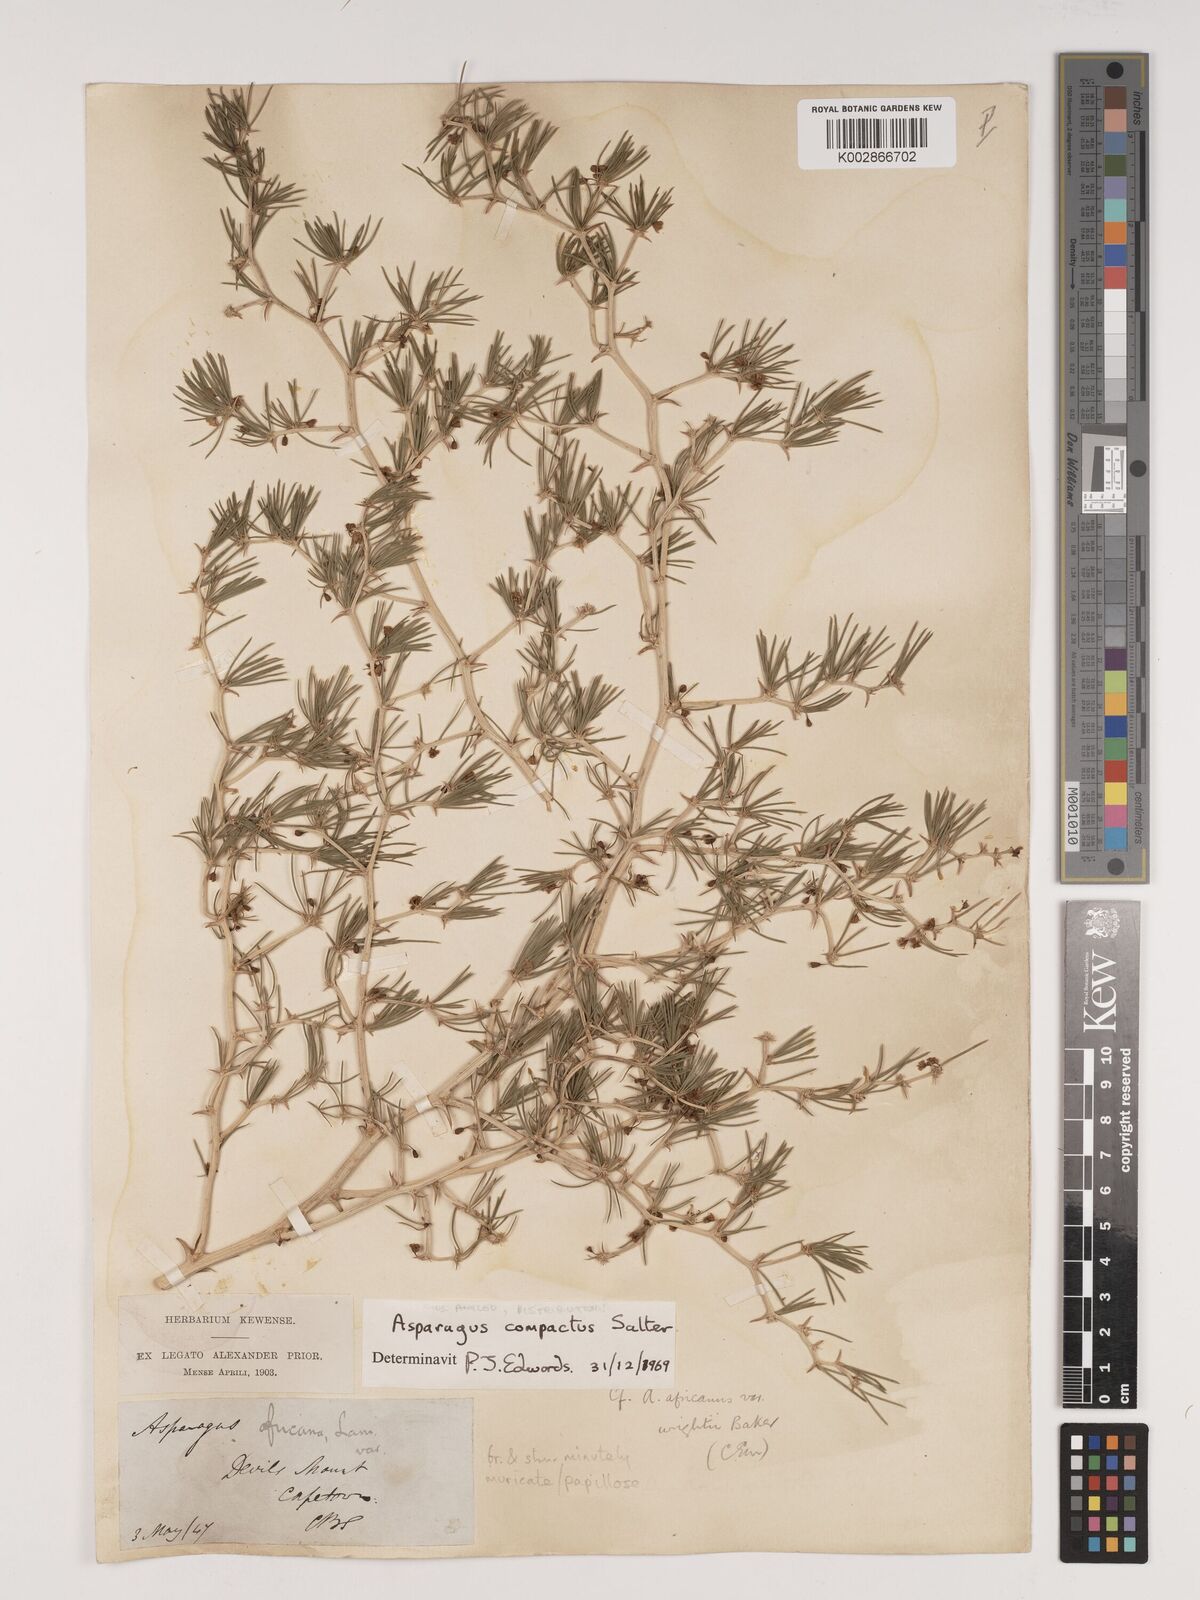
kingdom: Plantae
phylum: Tracheophyta
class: Liliopsida
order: Asparagales
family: Asparagaceae
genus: Asparagus
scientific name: Asparagus lignosus
